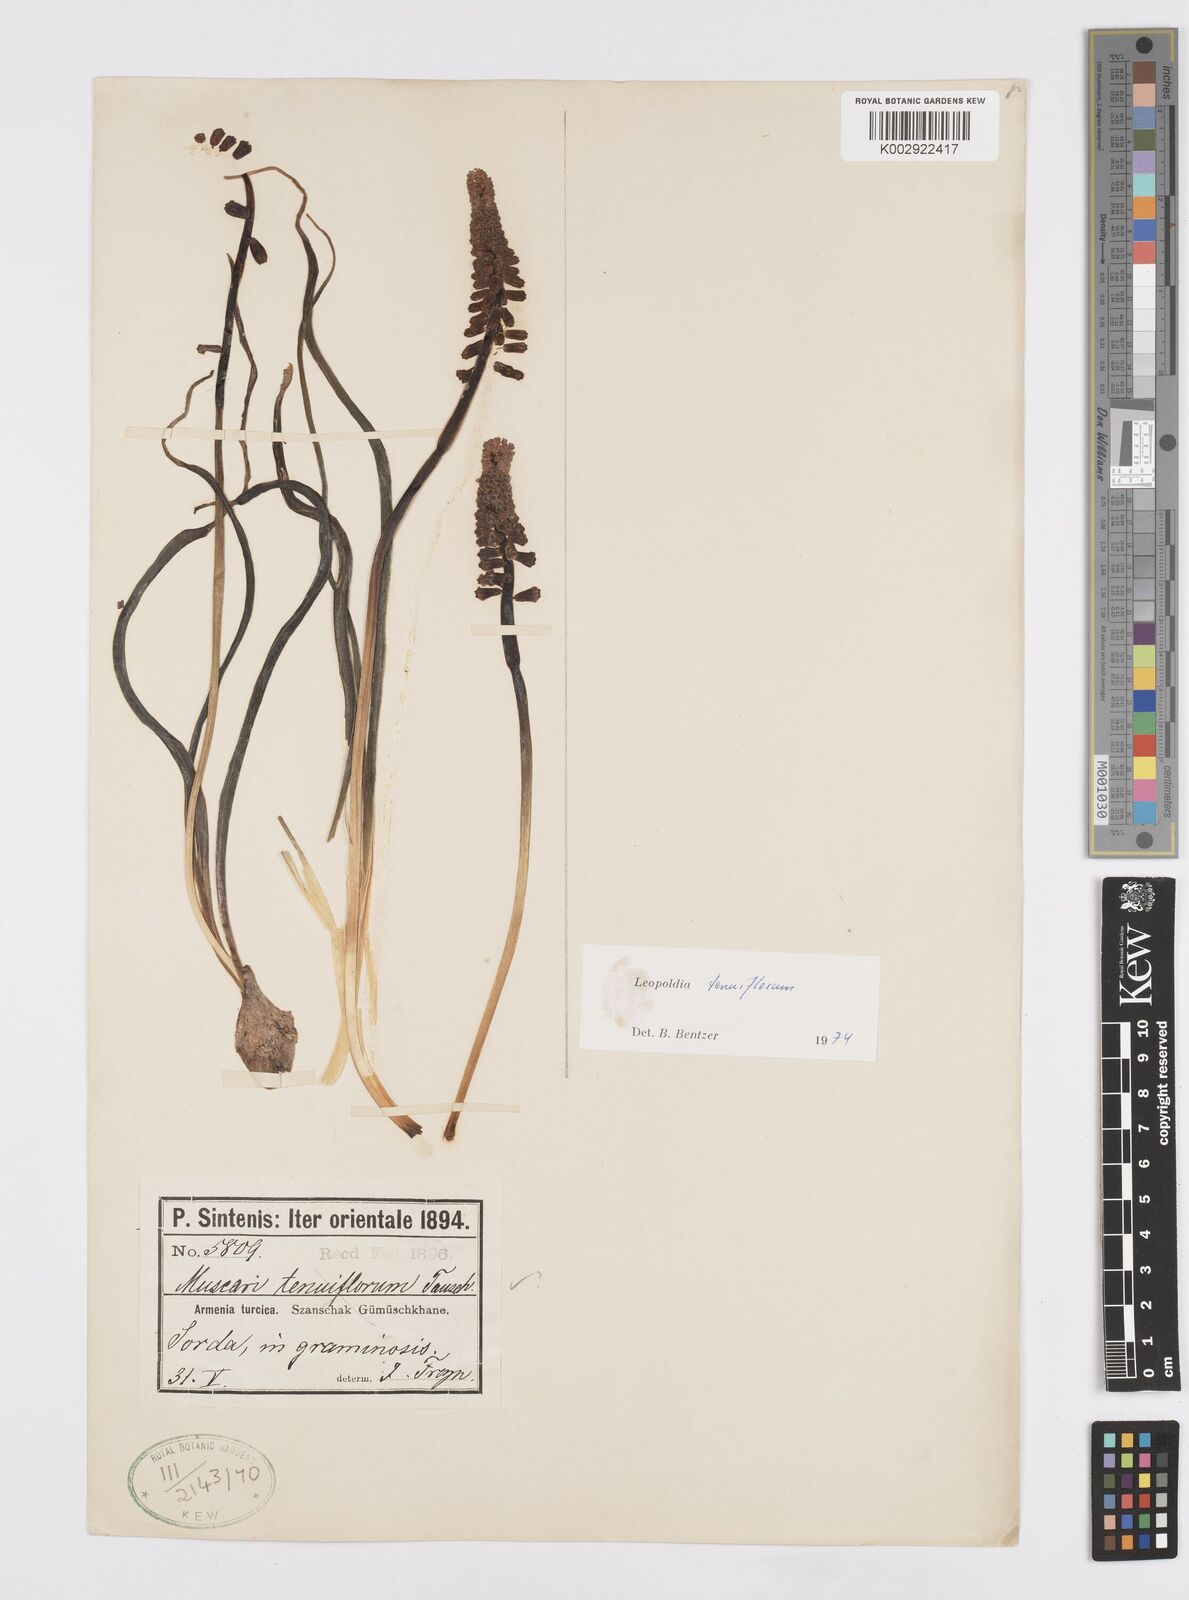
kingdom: Plantae
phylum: Tracheophyta
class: Liliopsida
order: Asparagales
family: Asparagaceae
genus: Muscari
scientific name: Muscari tenuiflorum
